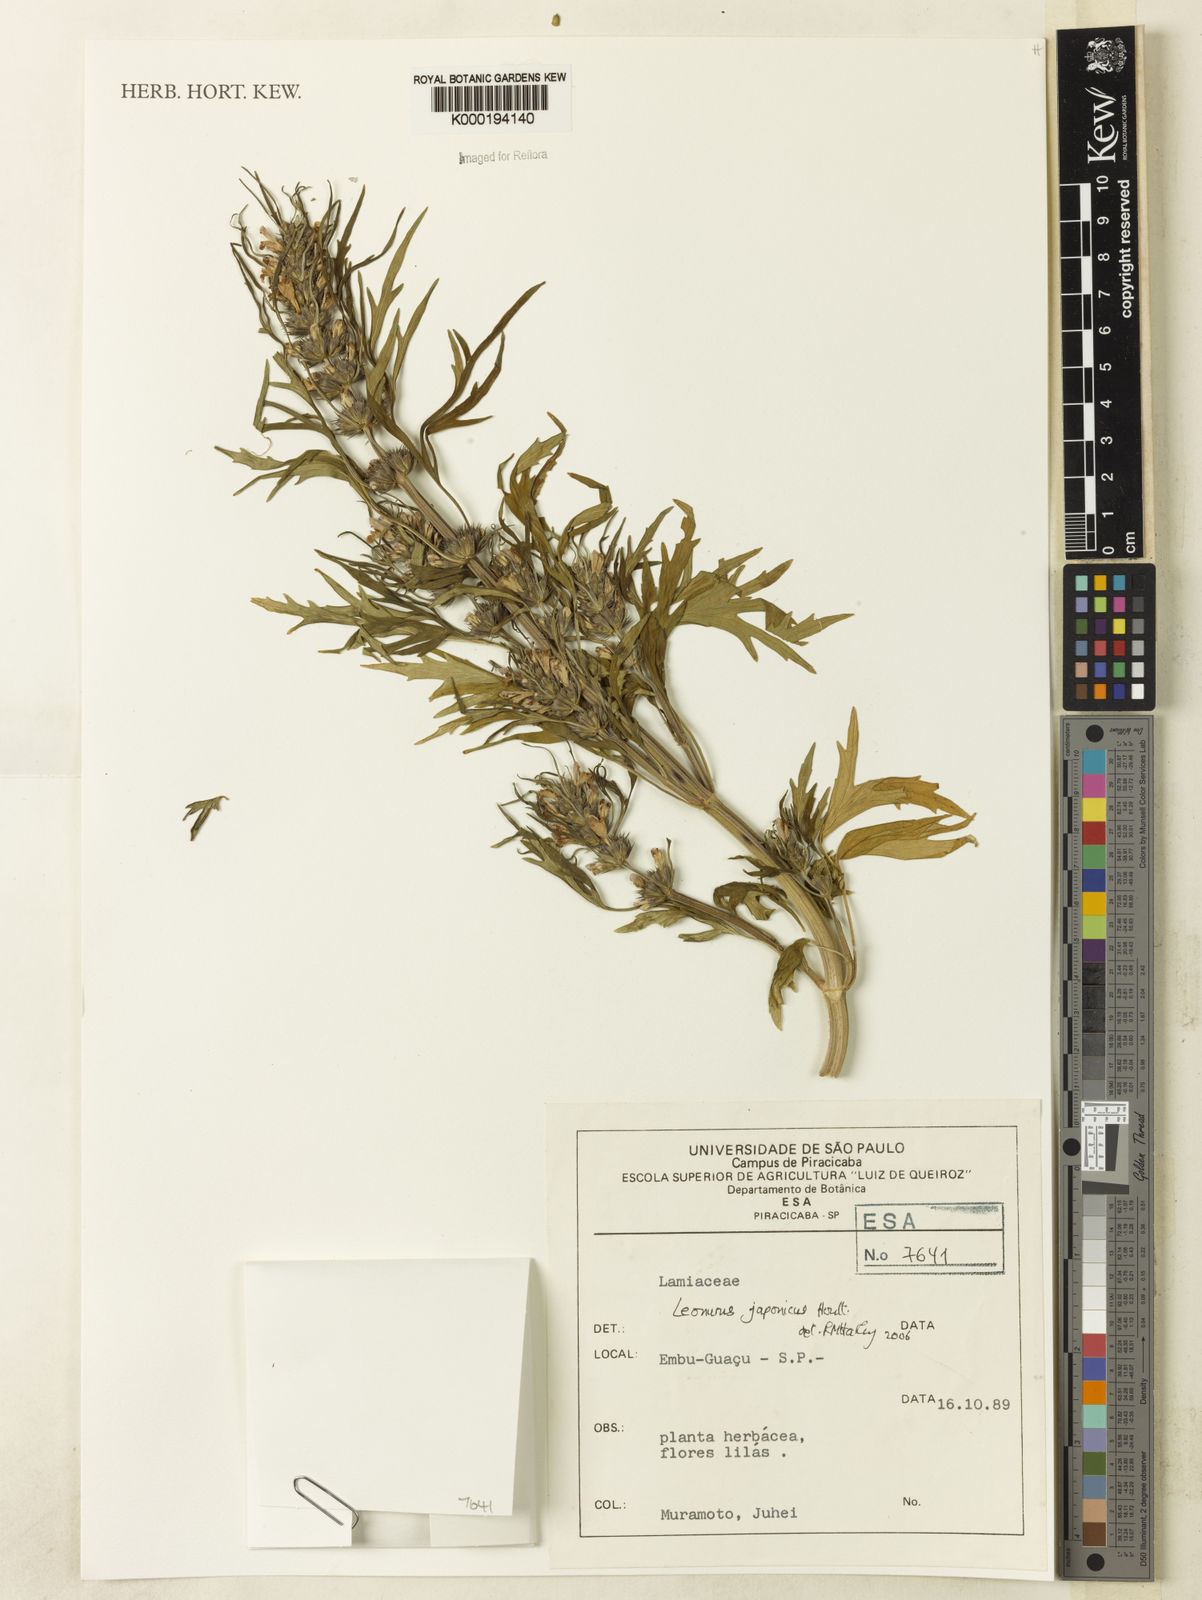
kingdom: Plantae
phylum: Tracheophyta
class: Magnoliopsida
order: Lamiales
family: Lamiaceae
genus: Leonurus
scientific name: Leonurus japonicus
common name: Honeyweed
